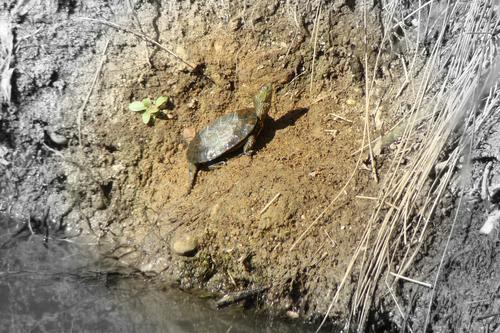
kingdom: Animalia
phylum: Chordata
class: Testudines
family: Geoemydidae
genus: Mauremys
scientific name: Mauremys leprosa
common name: Mediterranean pond turtle
